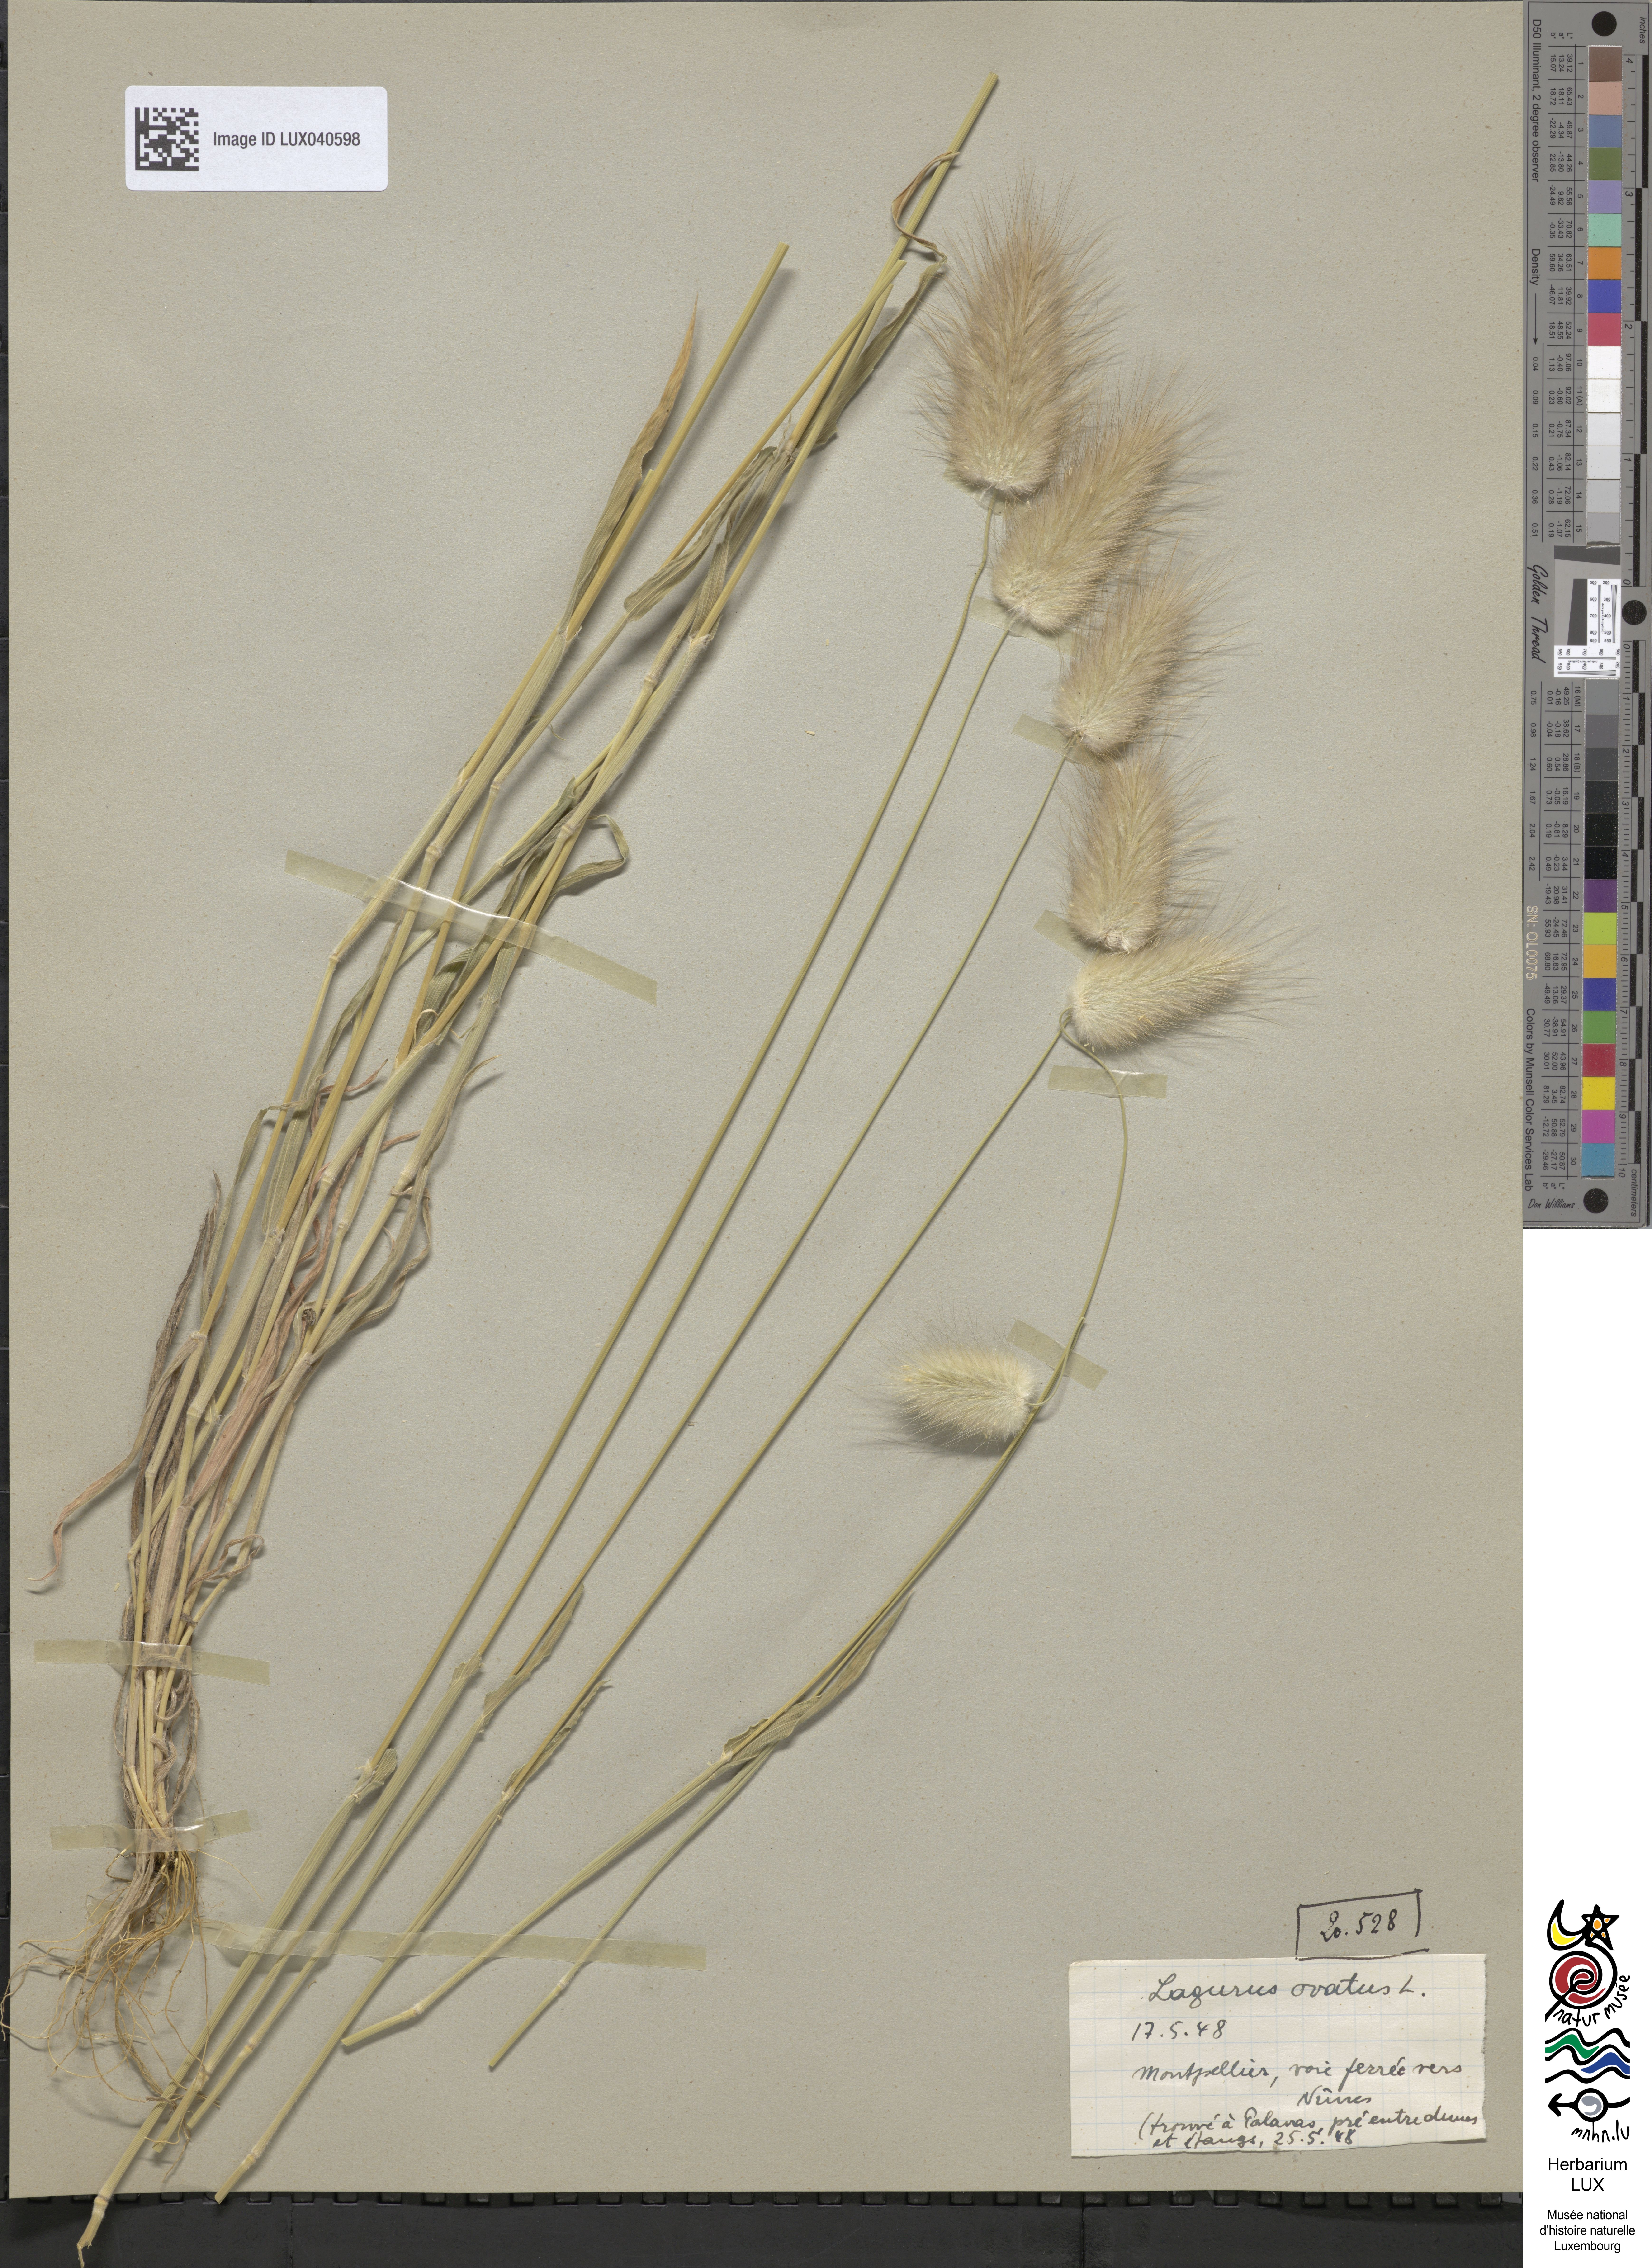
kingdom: Plantae
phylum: Tracheophyta
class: Liliopsida
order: Poales
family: Poaceae
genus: Lagurus
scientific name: Lagurus ovatus
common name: Hare's-tail
